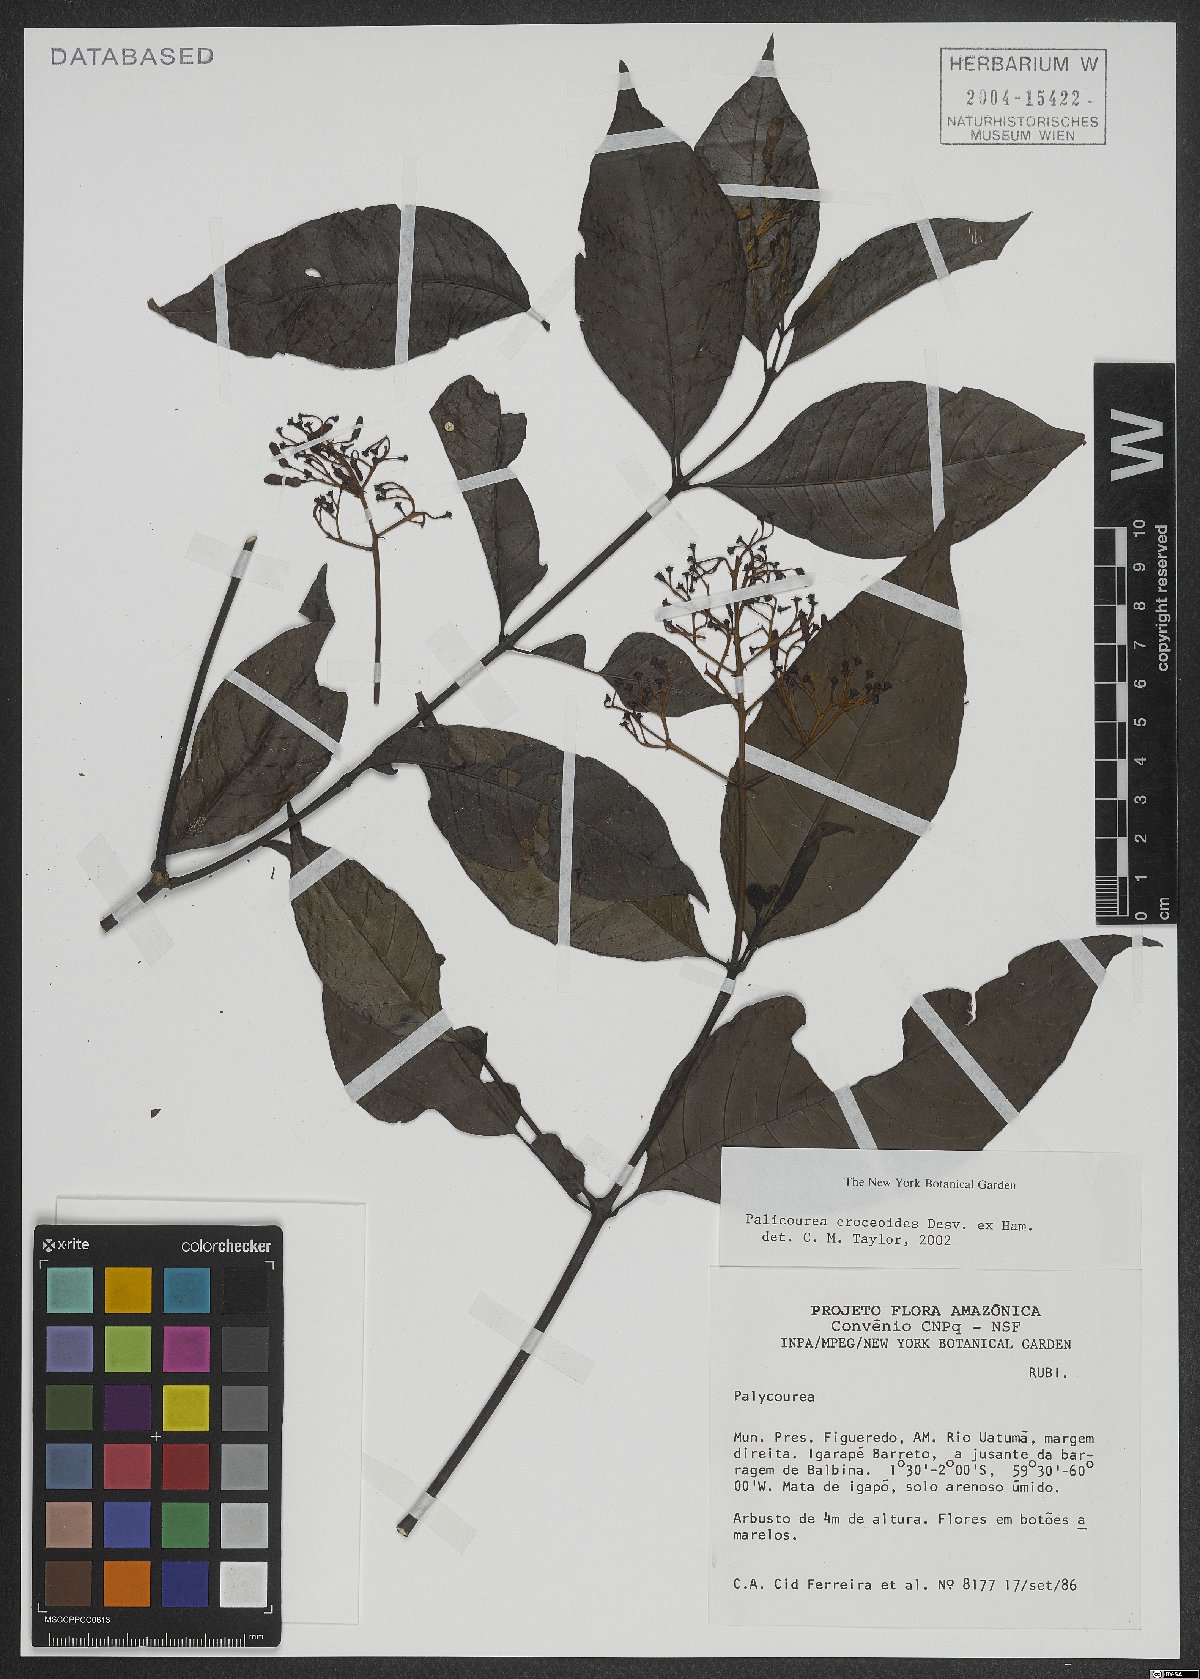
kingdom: Plantae
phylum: Tracheophyta
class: Magnoliopsida
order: Gentianales
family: Rubiaceae
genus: Palicourea
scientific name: Palicourea croceoides
